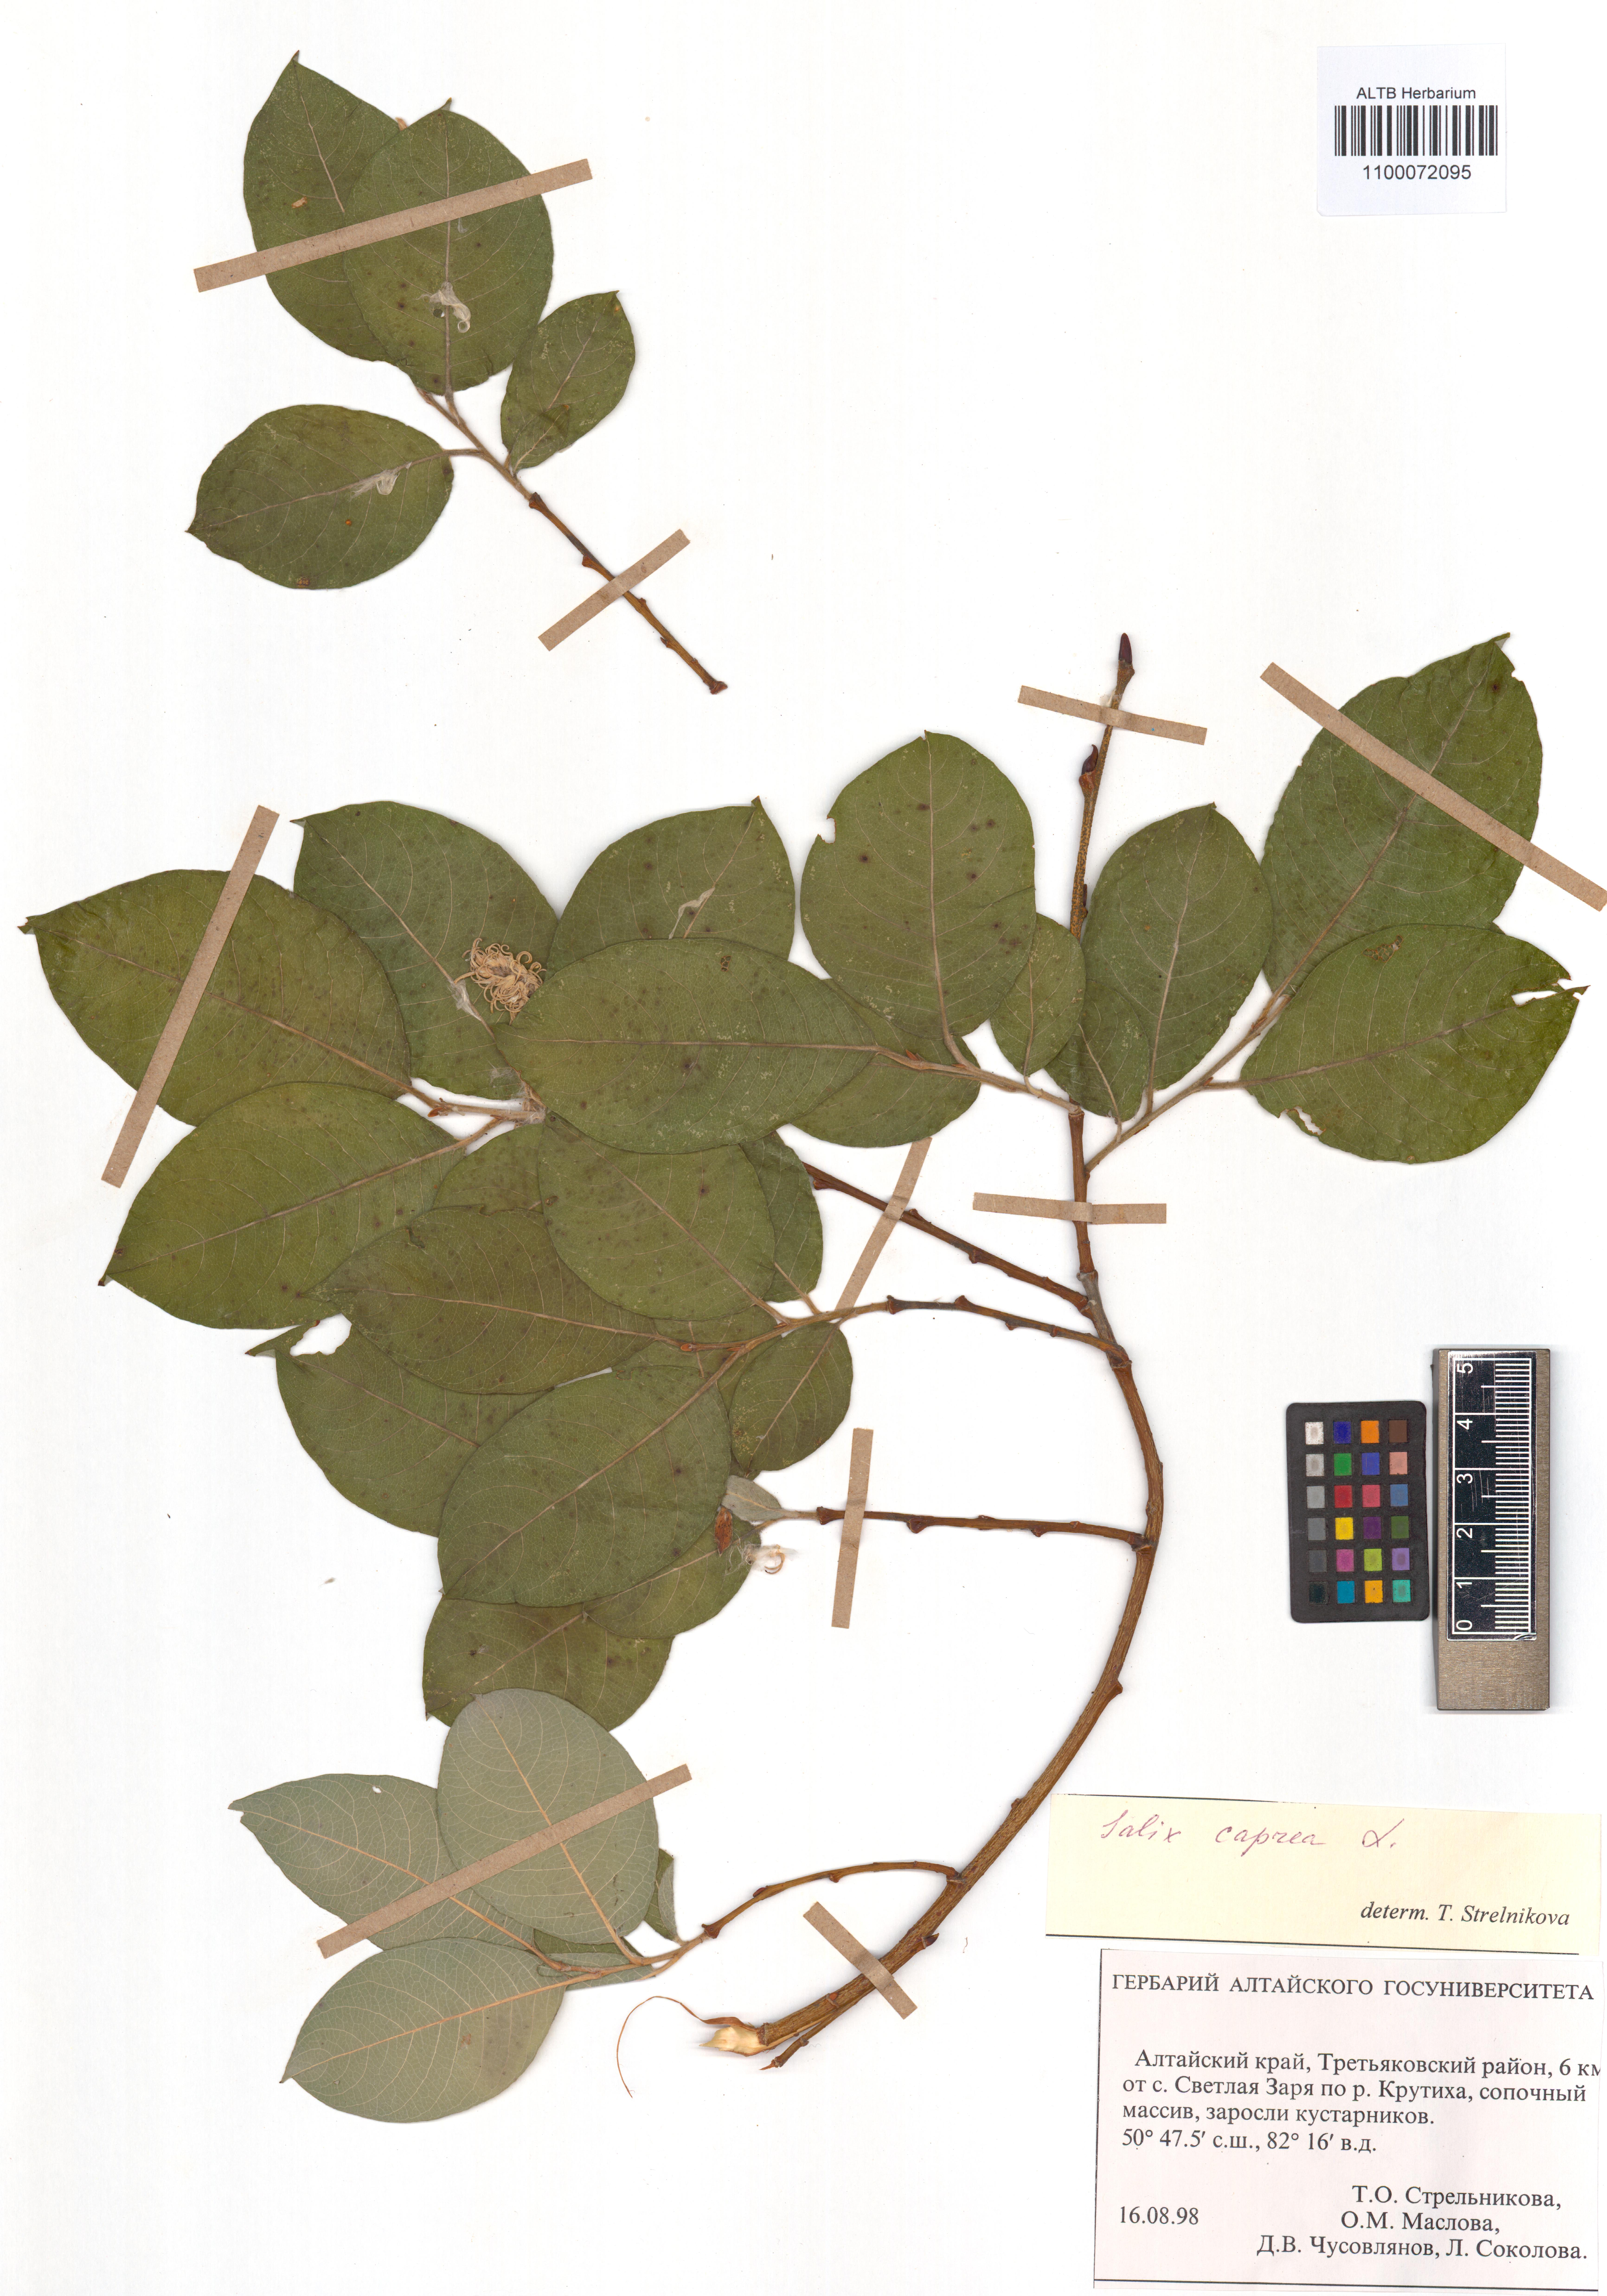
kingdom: Plantae
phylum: Tracheophyta
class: Magnoliopsida
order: Malpighiales
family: Salicaceae
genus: Salix
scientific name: Salix caprea
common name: Goat willow
